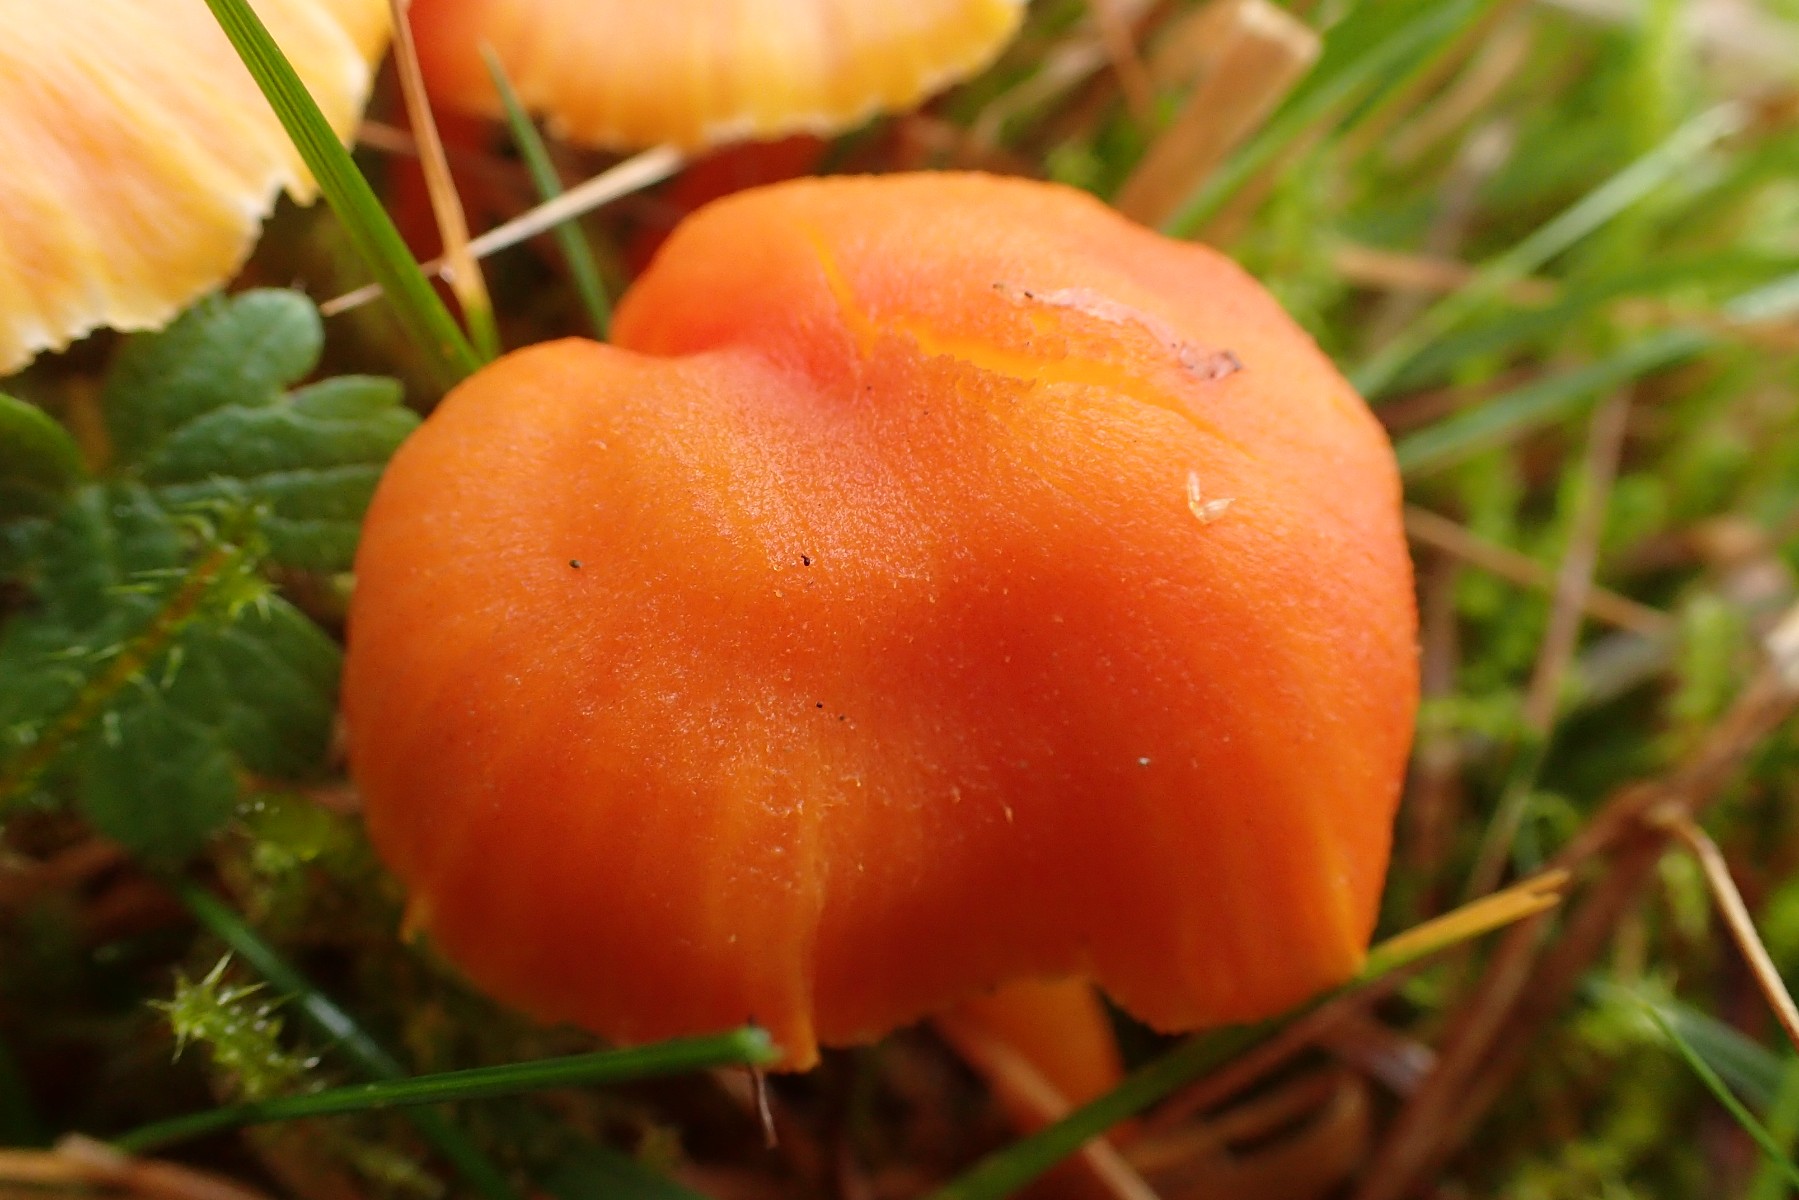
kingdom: Fungi
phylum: Basidiomycota
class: Agaricomycetes
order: Agaricales
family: Hygrophoraceae
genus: Hygrocybe
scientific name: Hygrocybe reidii
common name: honning-vokshat
